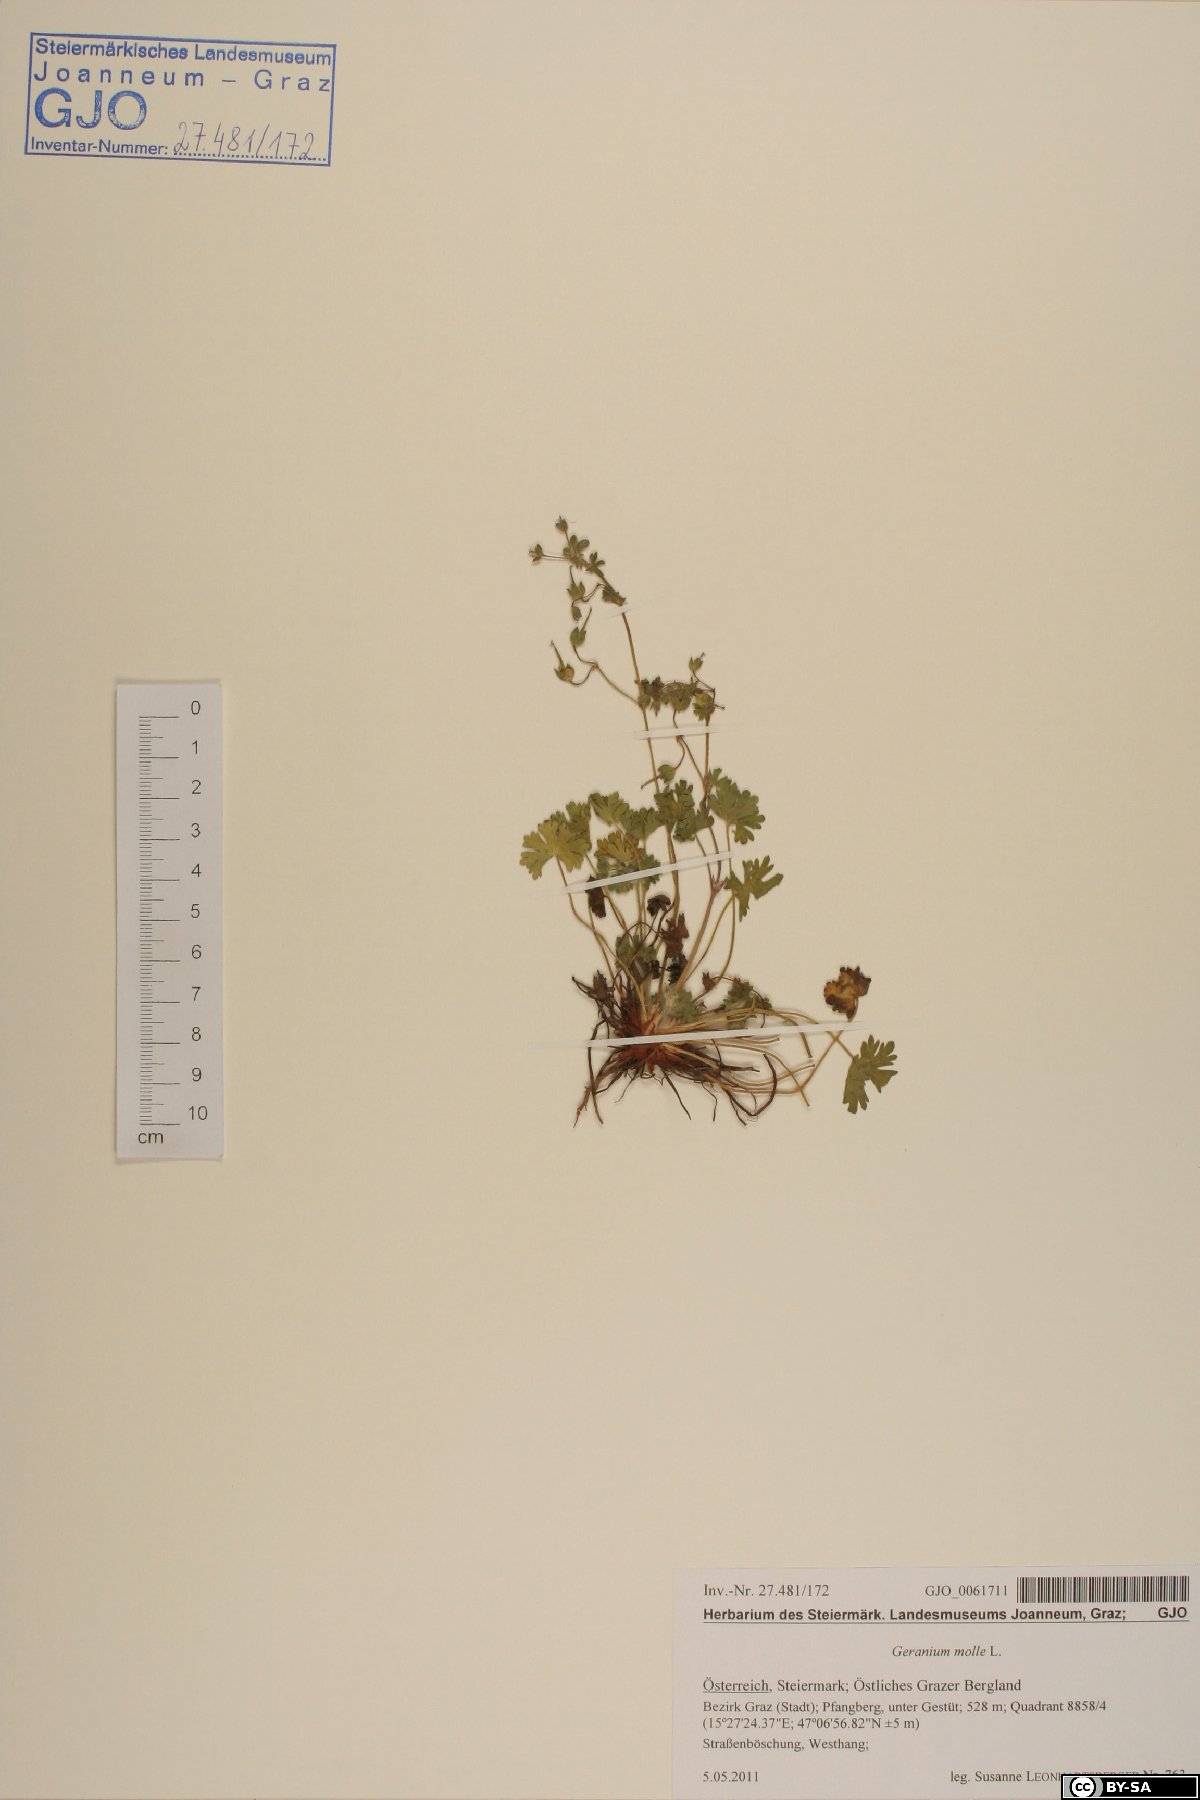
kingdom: Plantae
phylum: Tracheophyta
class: Magnoliopsida
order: Geraniales
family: Geraniaceae
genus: Geranium
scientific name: Geranium molle
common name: Dove's-foot crane's-bill
